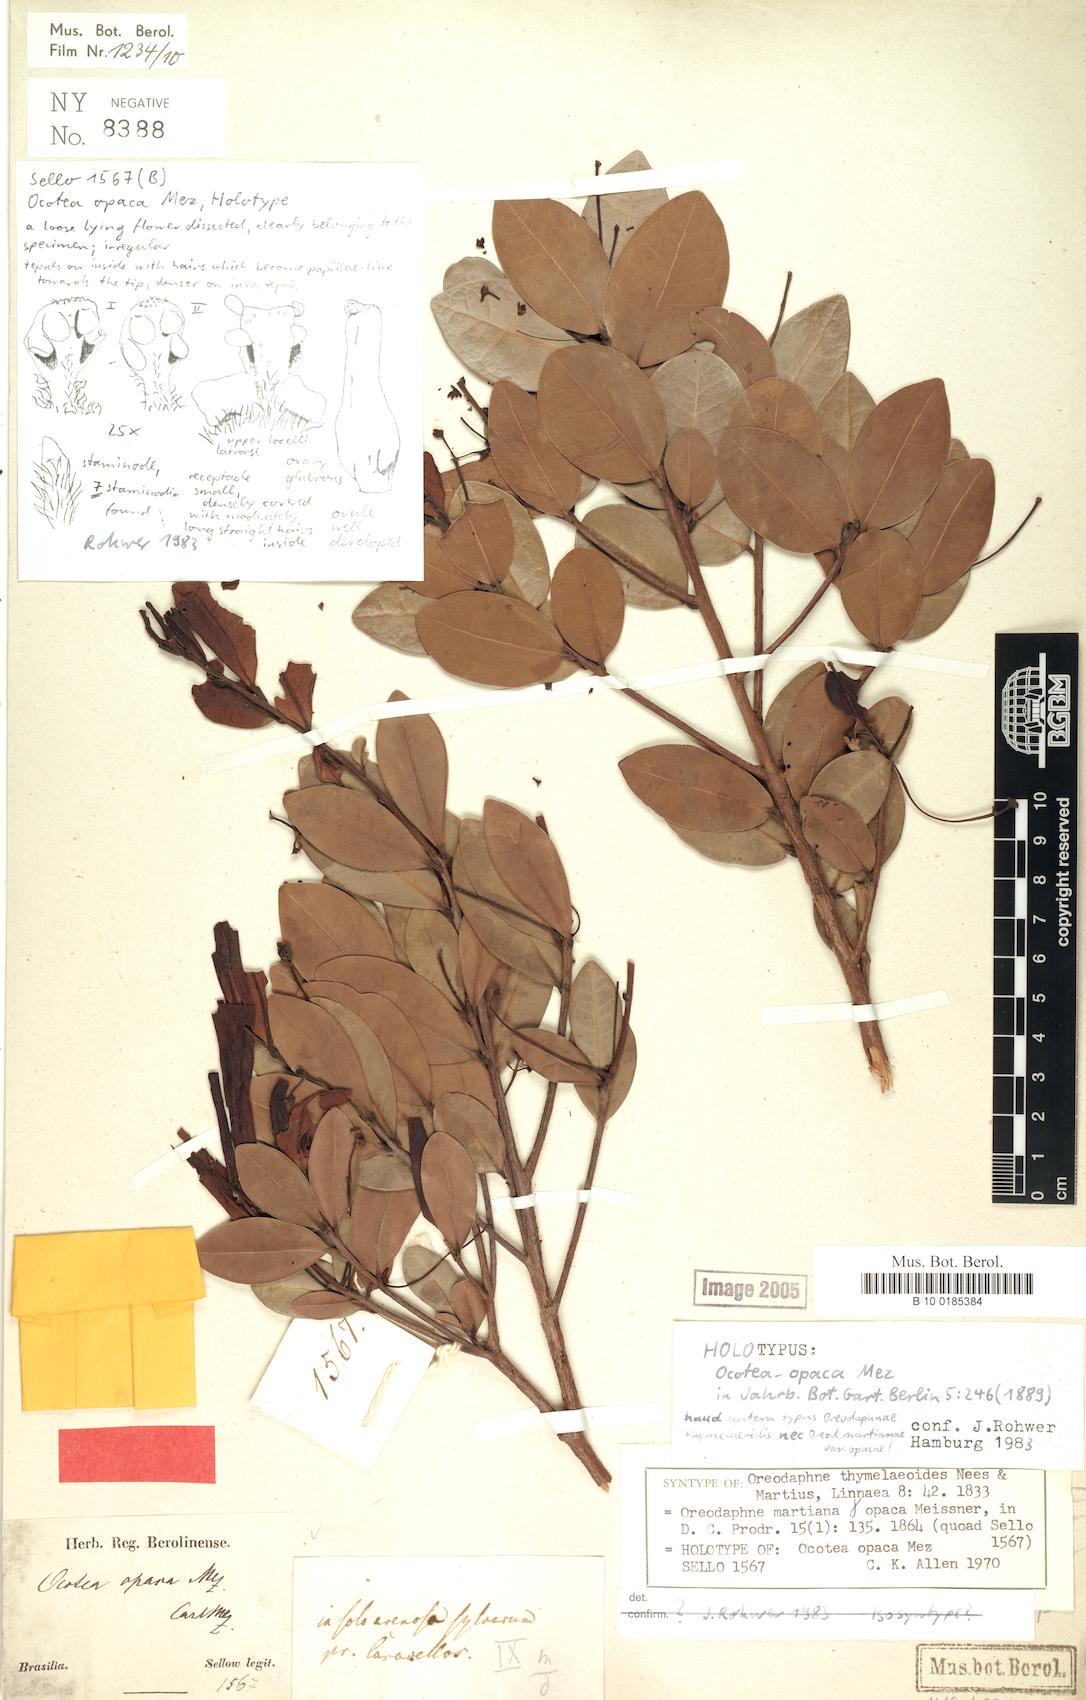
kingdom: Plantae
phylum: Tracheophyta
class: Magnoliopsida
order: Laurales
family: Lauraceae
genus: Ocotea
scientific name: Ocotea lobbii
